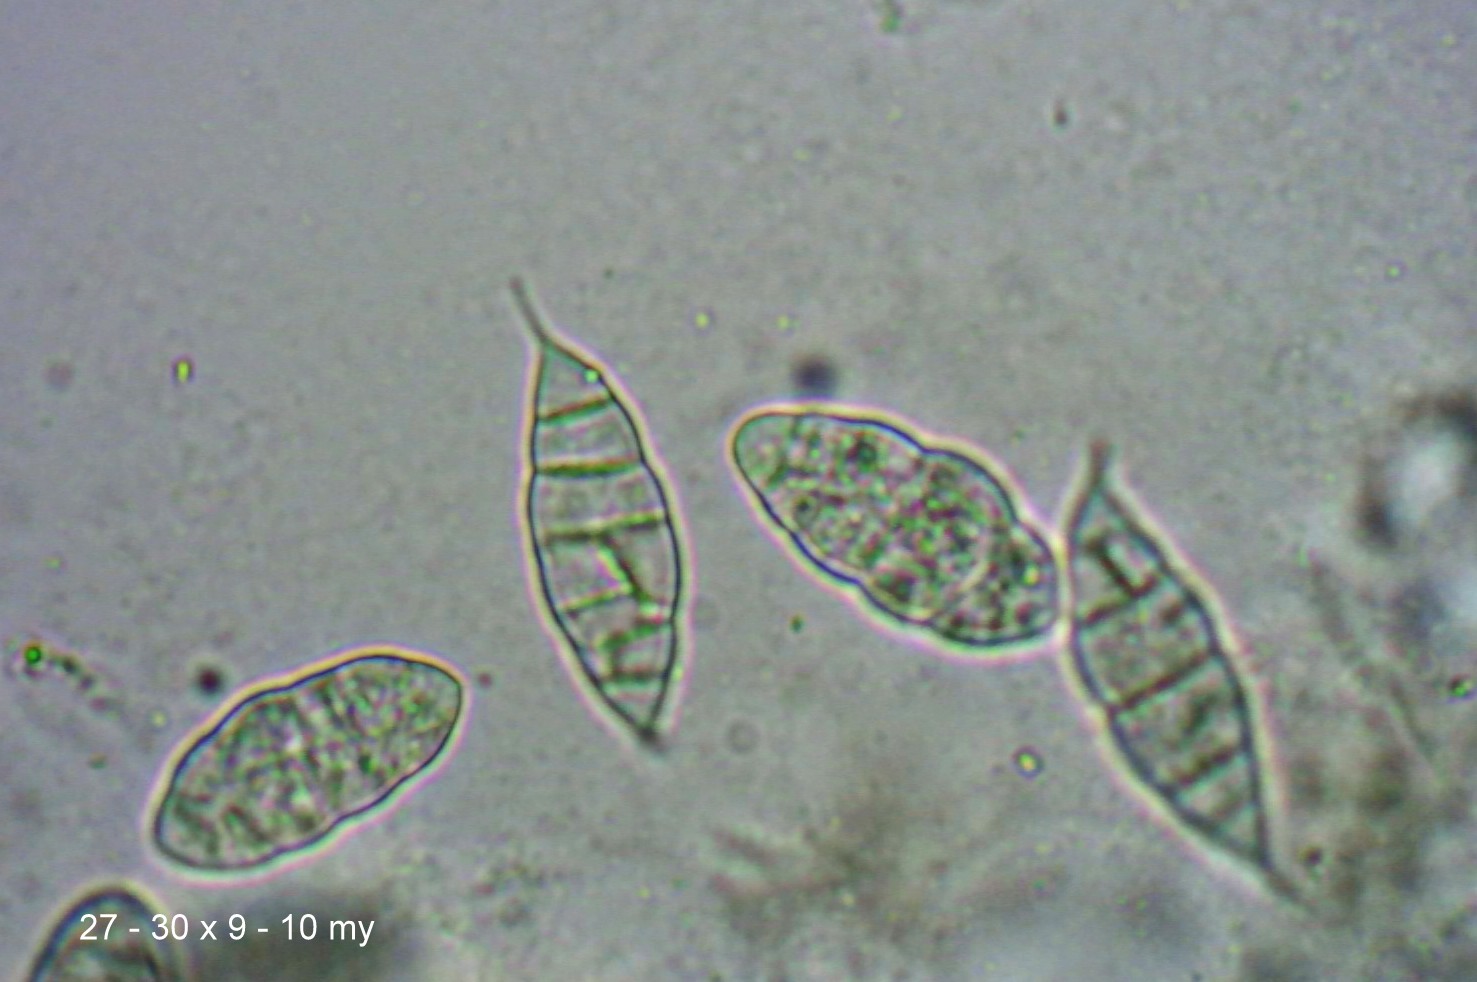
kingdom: Fungi
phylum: Ascomycota
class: Sordariomycetes
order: Hypocreales
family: Bionectriaceae
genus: Paranectria
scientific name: Paranectria oropensis
